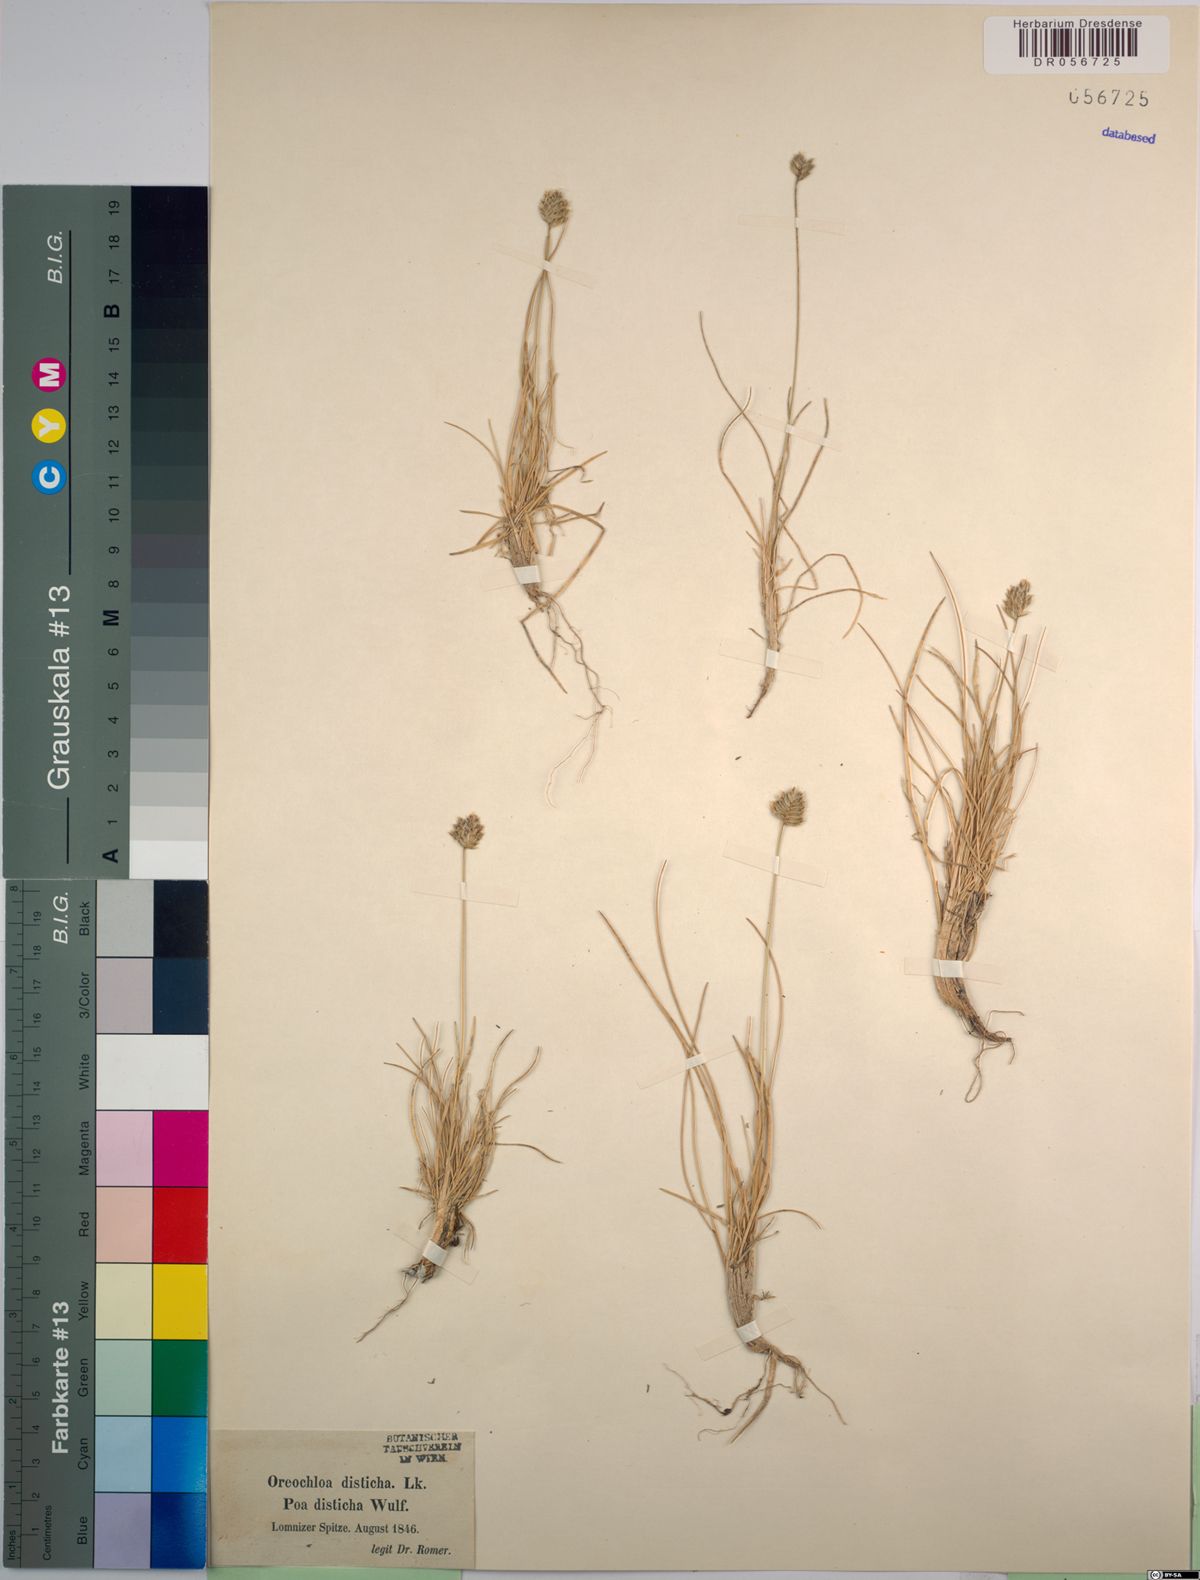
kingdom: Plantae
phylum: Tracheophyta
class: Liliopsida
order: Poales
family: Poaceae
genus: Oreochloa
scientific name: Oreochloa disticha
